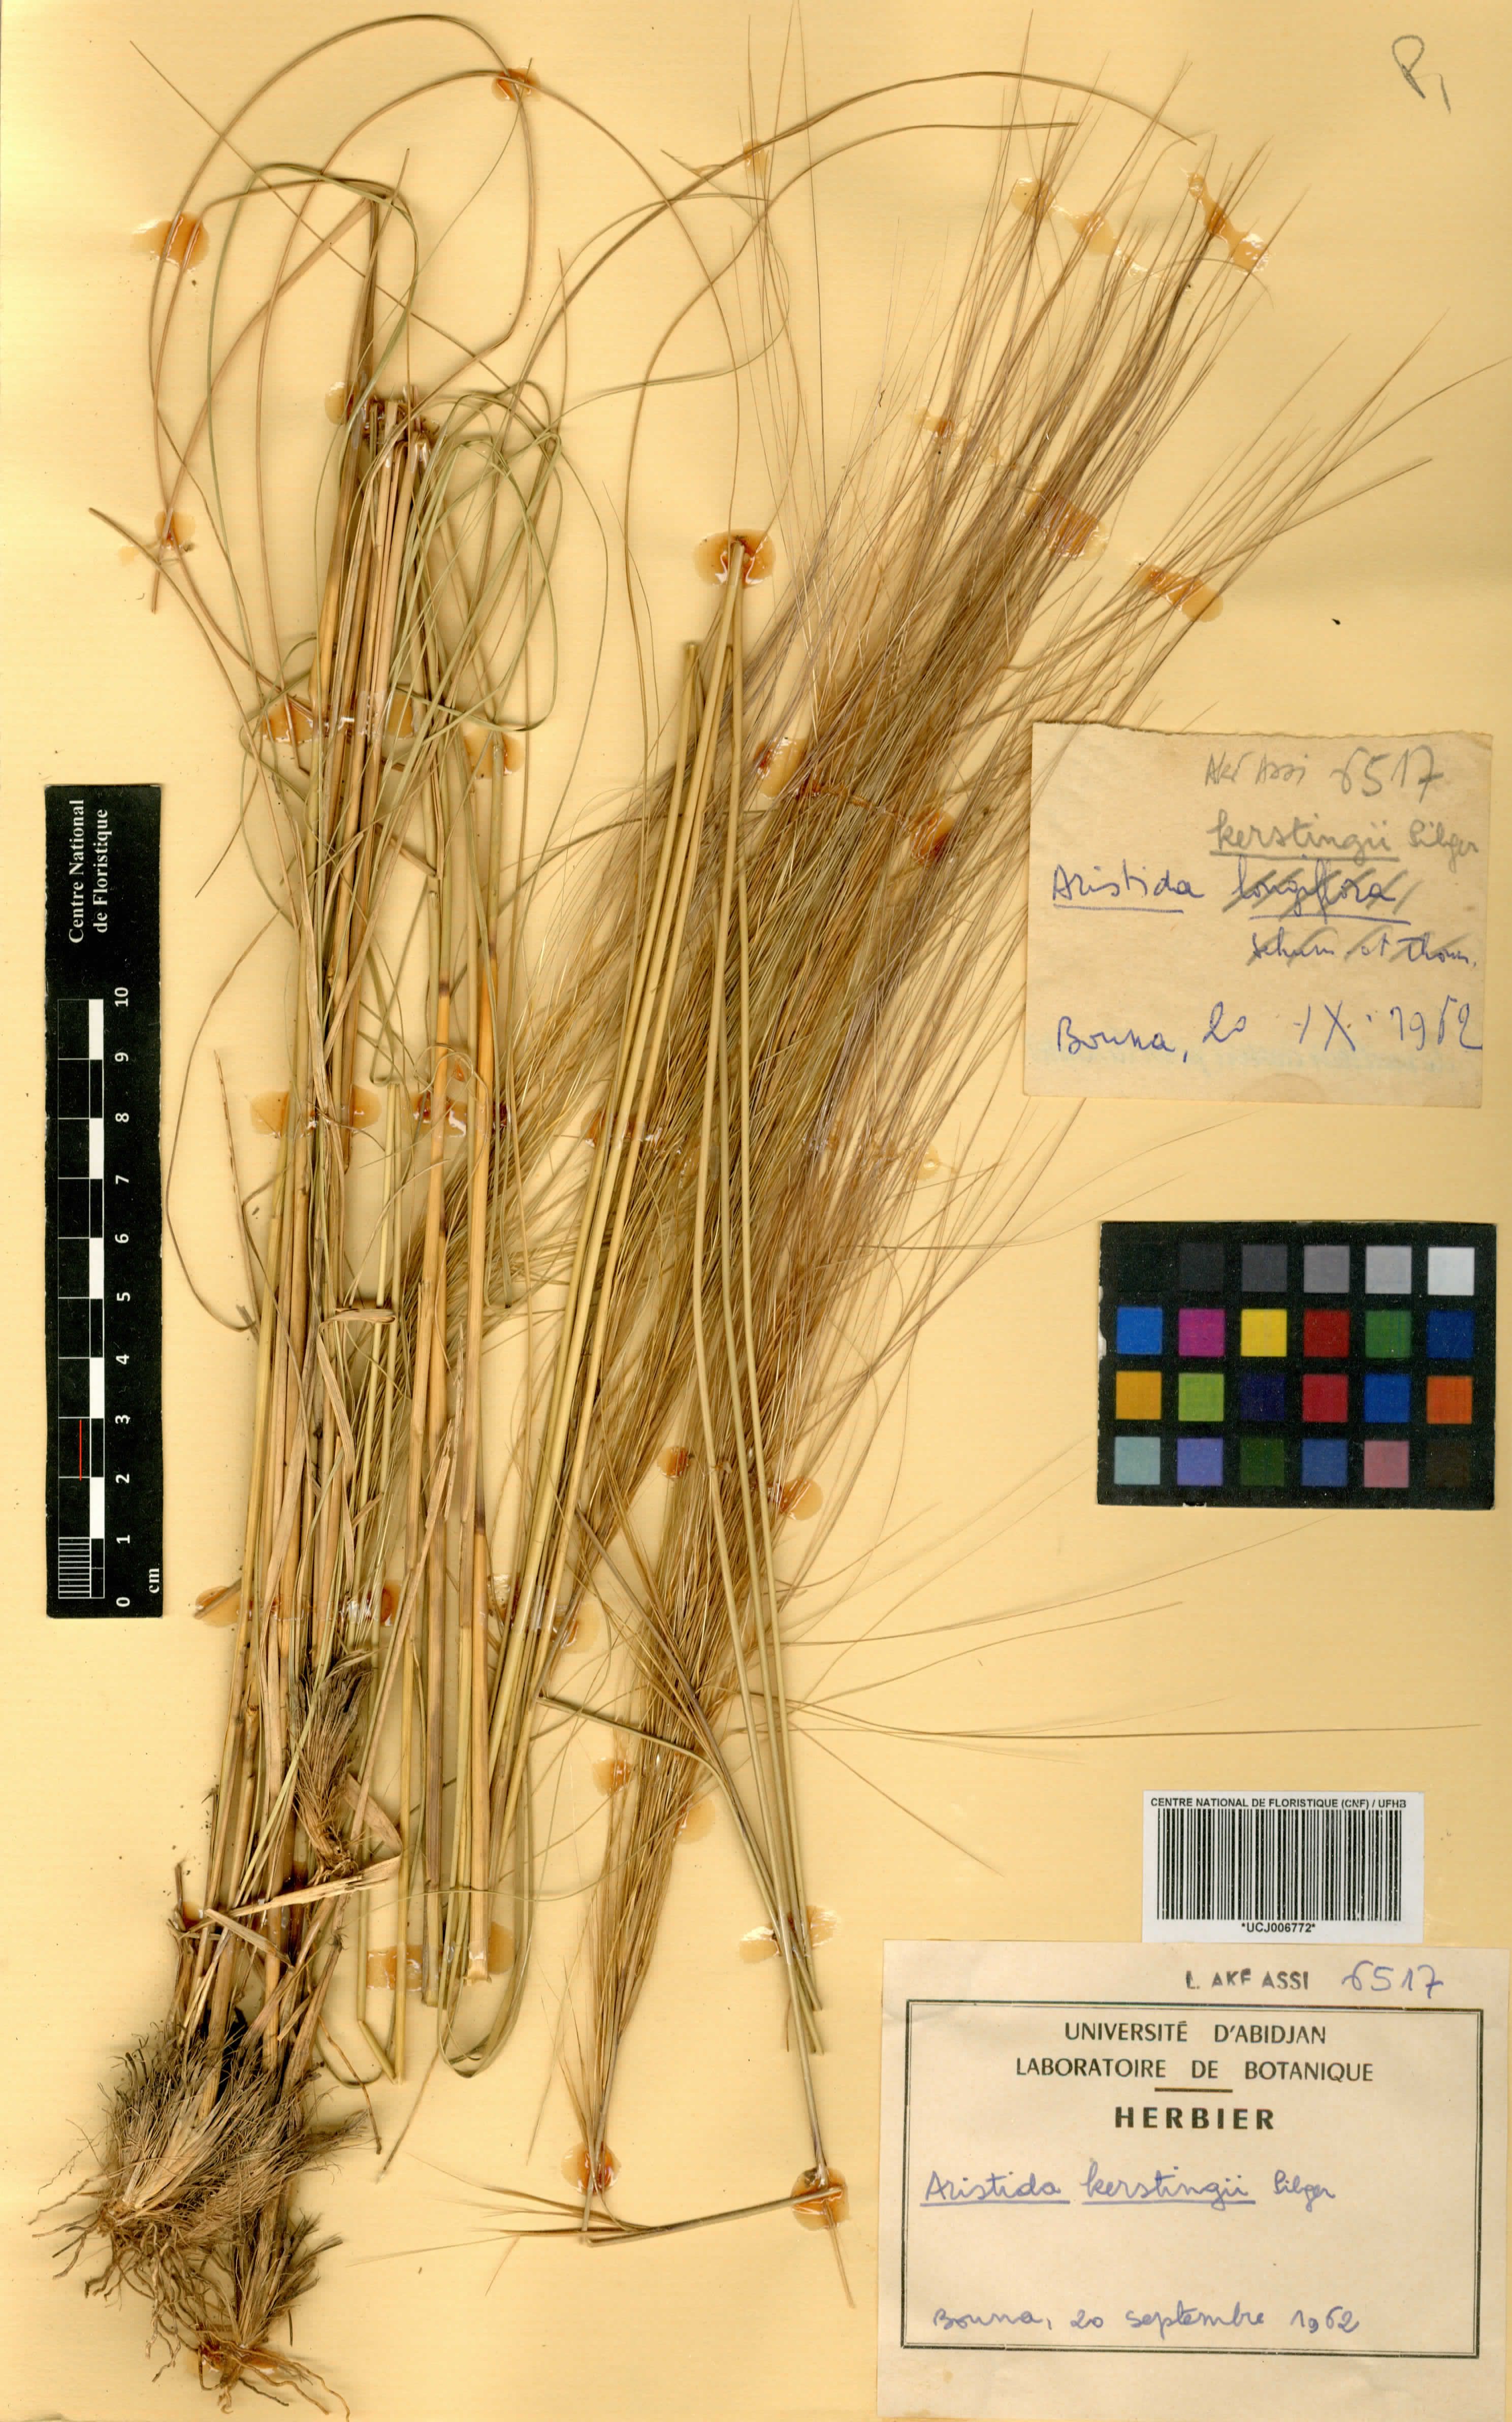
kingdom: Plantae
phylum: Tracheophyta
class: Liliopsida
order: Poales
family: Poaceae
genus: Aristida
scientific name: Aristida kerstingii
